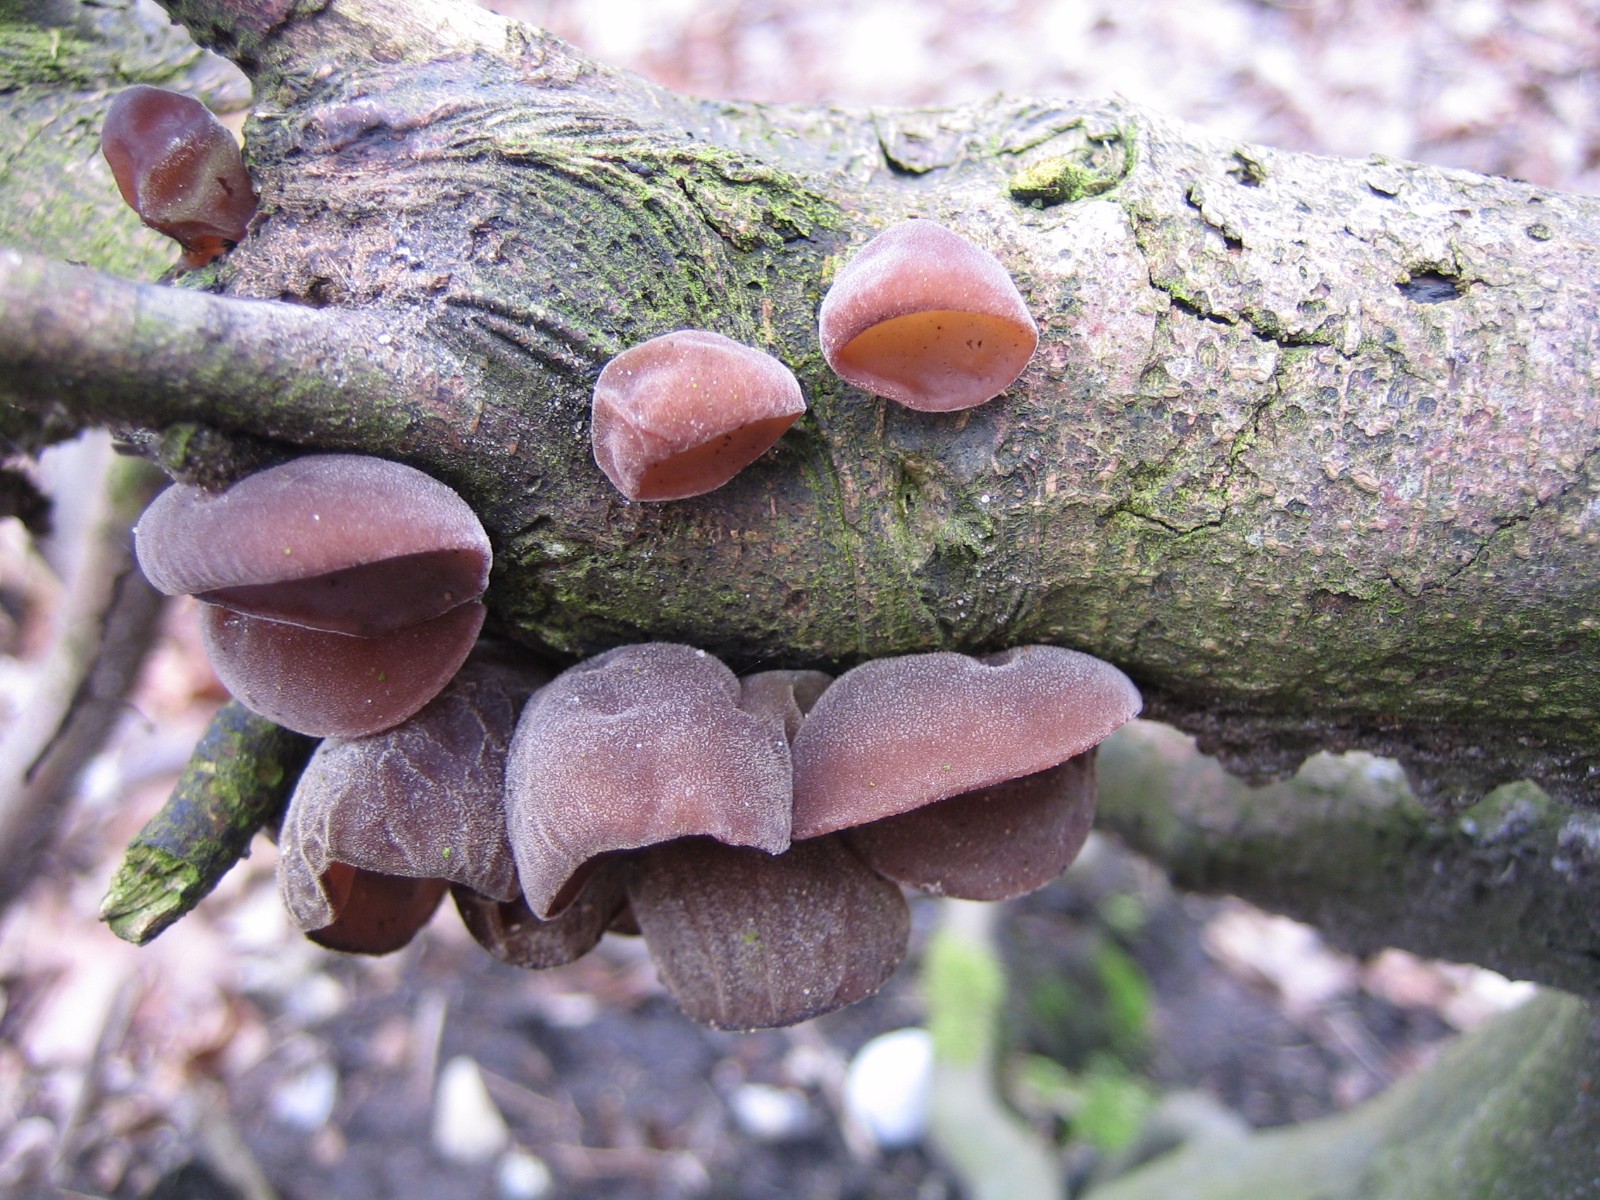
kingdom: Fungi
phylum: Basidiomycota
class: Agaricomycetes
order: Auriculariales
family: Auriculariaceae
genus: Auricularia
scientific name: Auricularia auricula-judae
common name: almindelig judasøre
